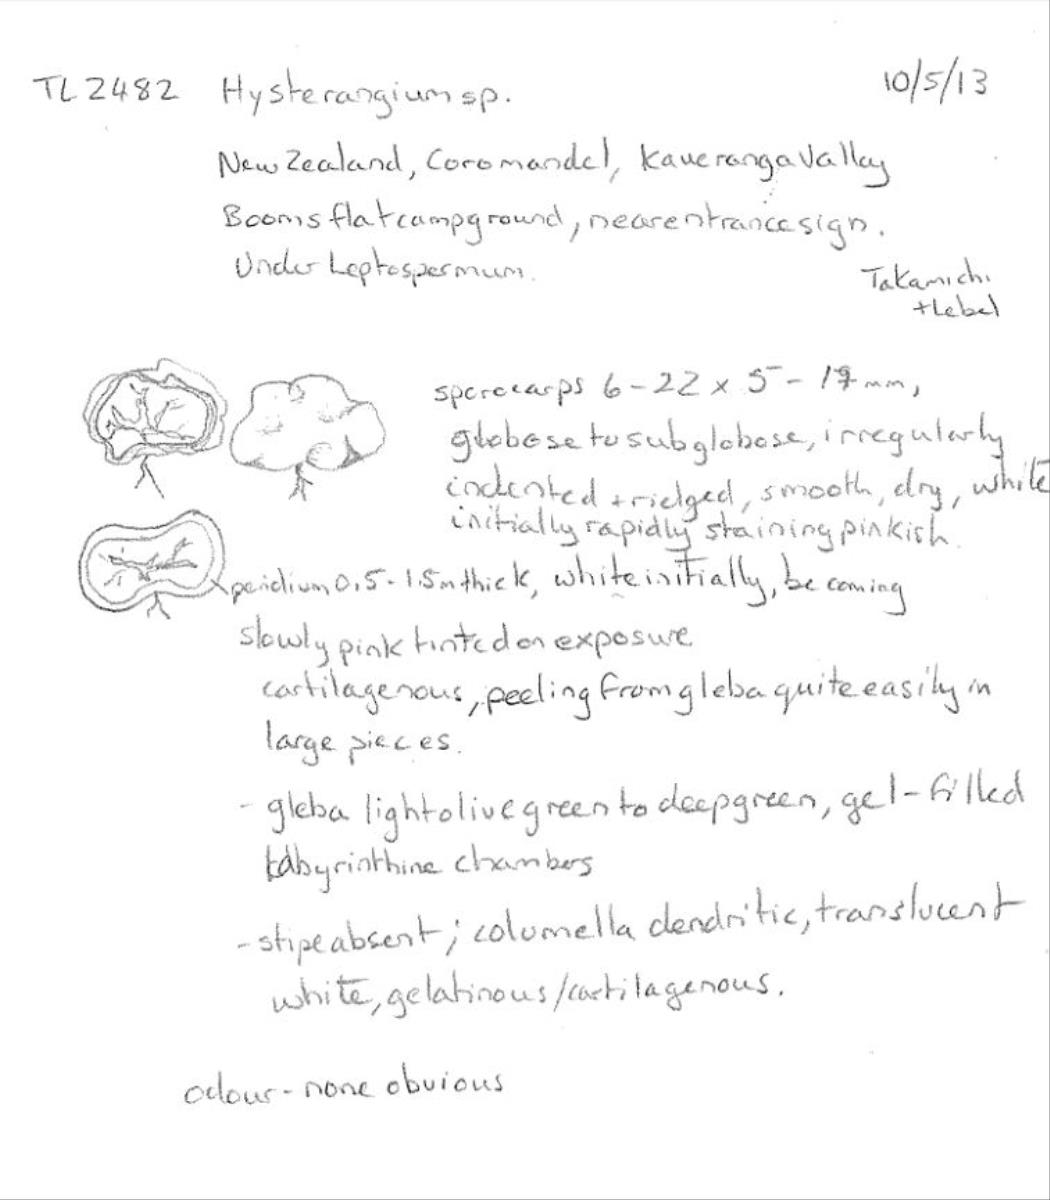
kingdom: Fungi
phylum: Basidiomycota
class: Agaricomycetes
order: Hysterangiales
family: Hysterangiaceae
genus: Hysterangium
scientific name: Hysterangium
